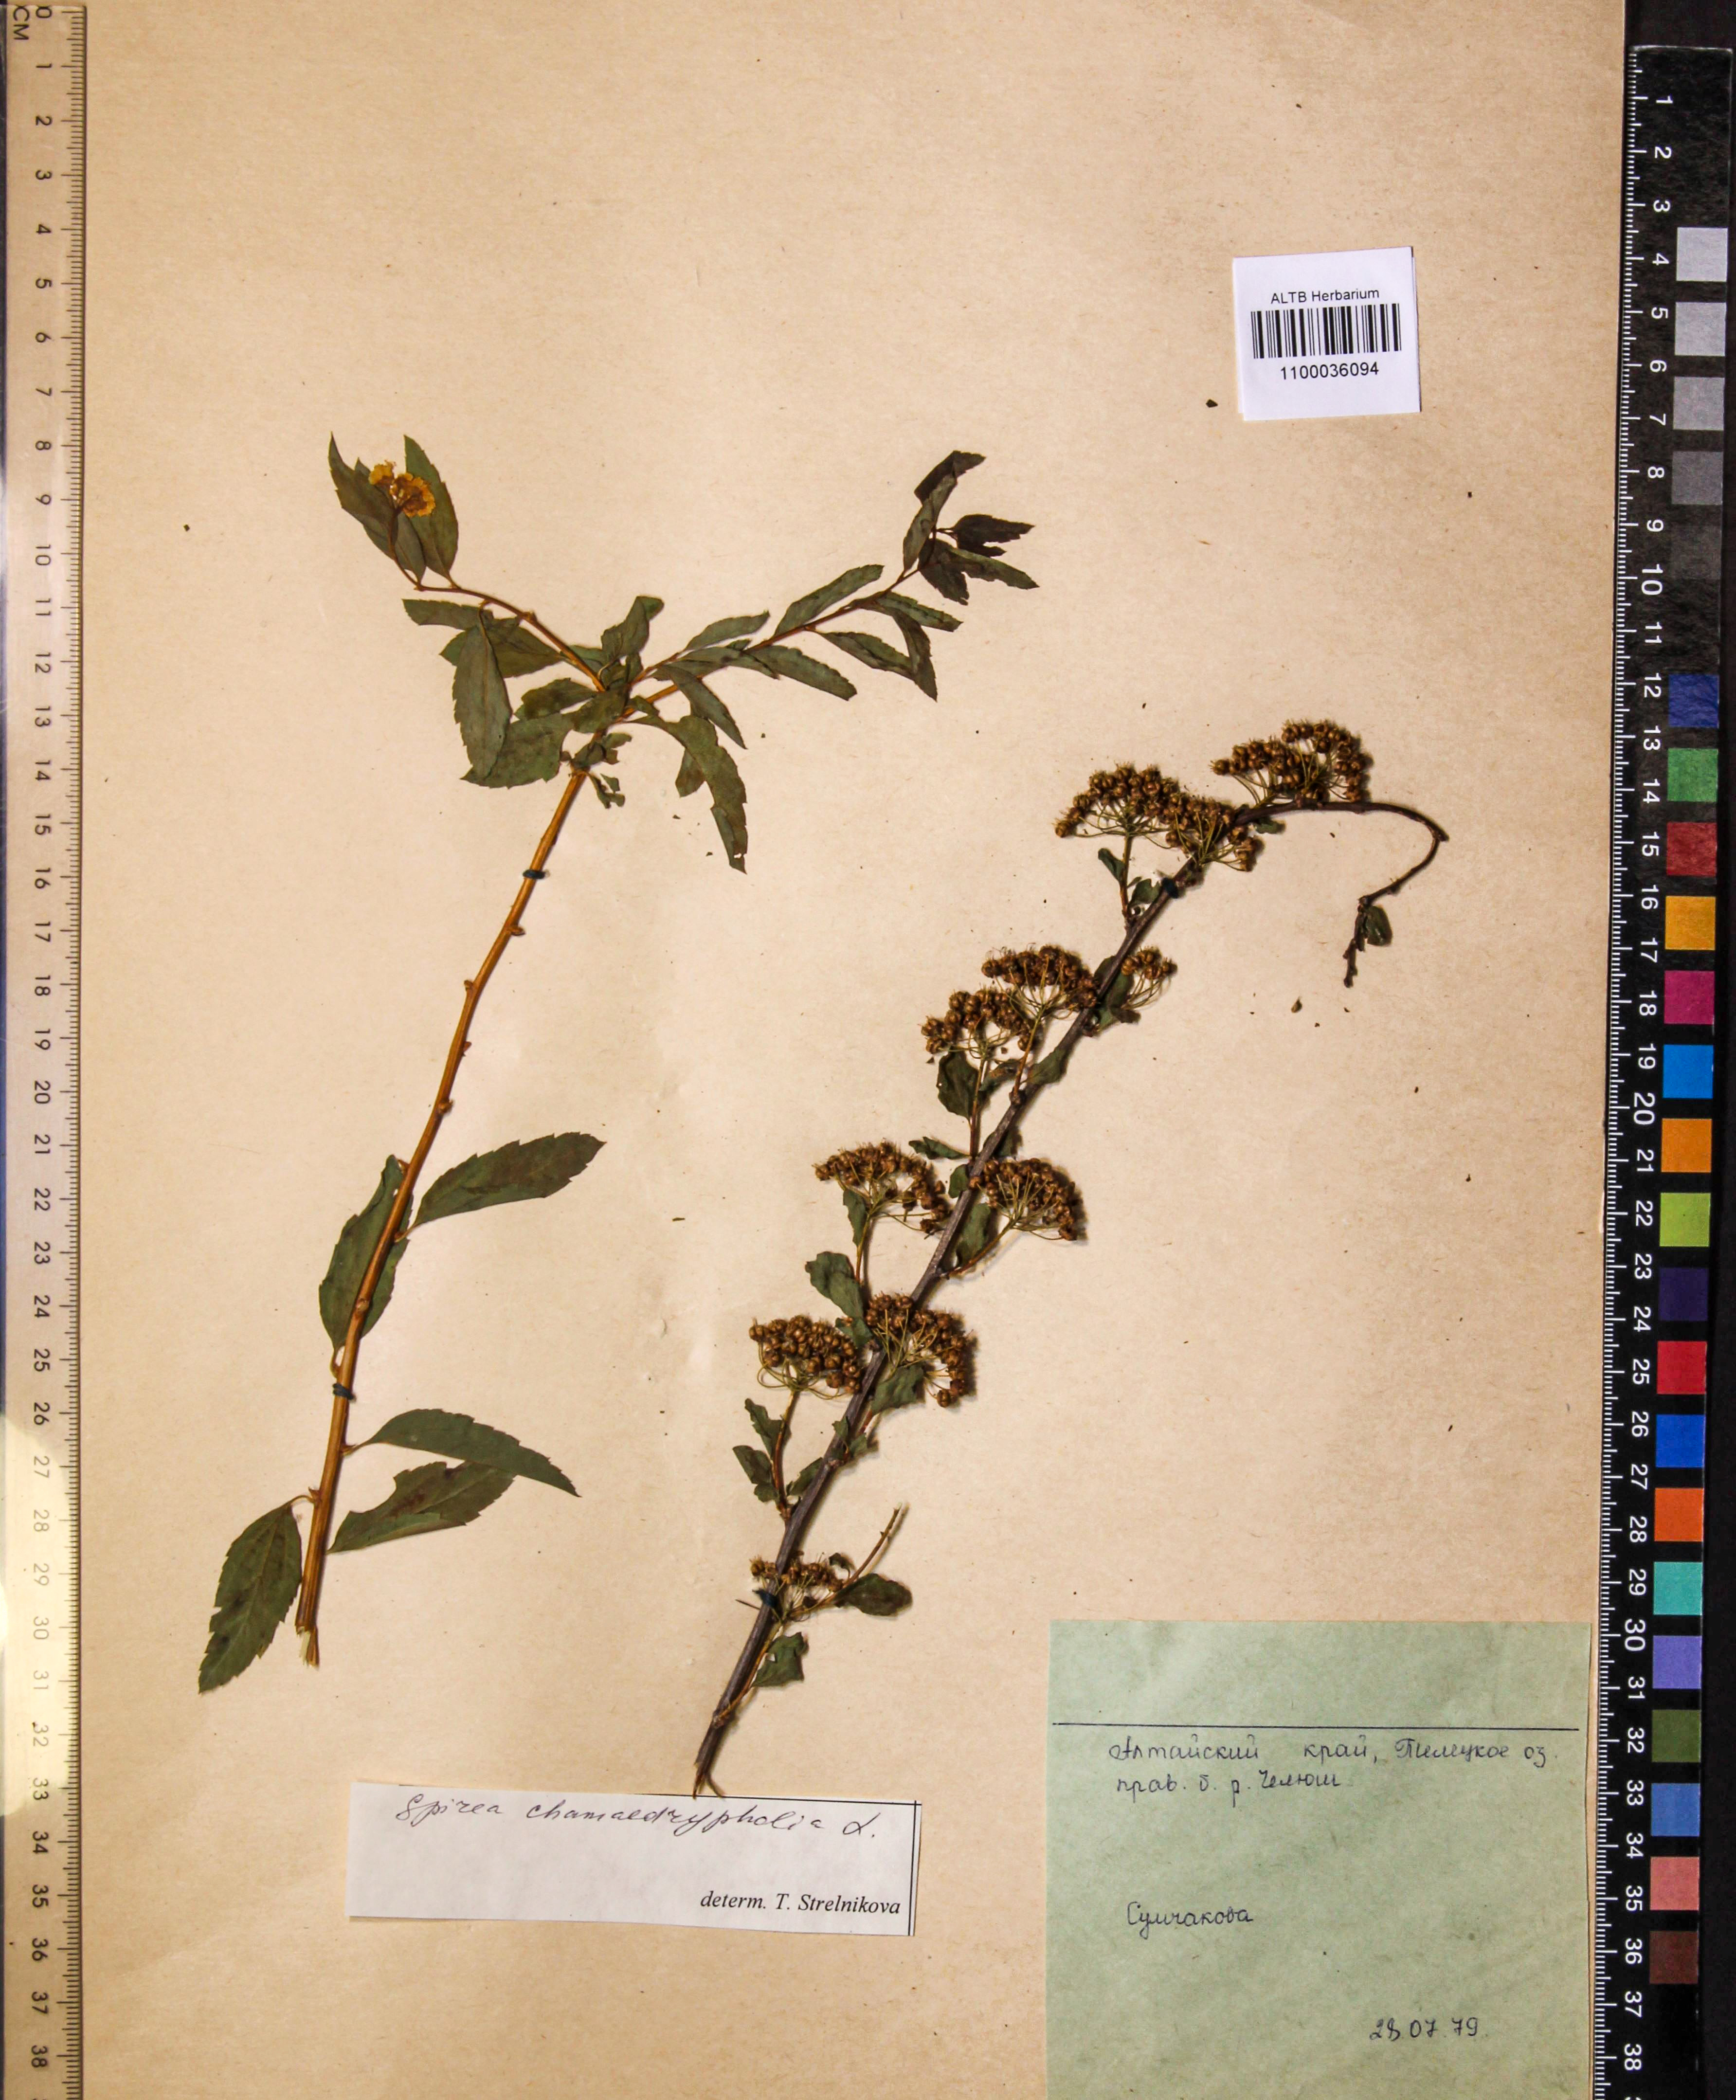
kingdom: Plantae
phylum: Tracheophyta
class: Magnoliopsida
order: Rosales
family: Rosaceae
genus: Spiraea
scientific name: Spiraea chamaedryfolia
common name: Elm-leaved spiraea
